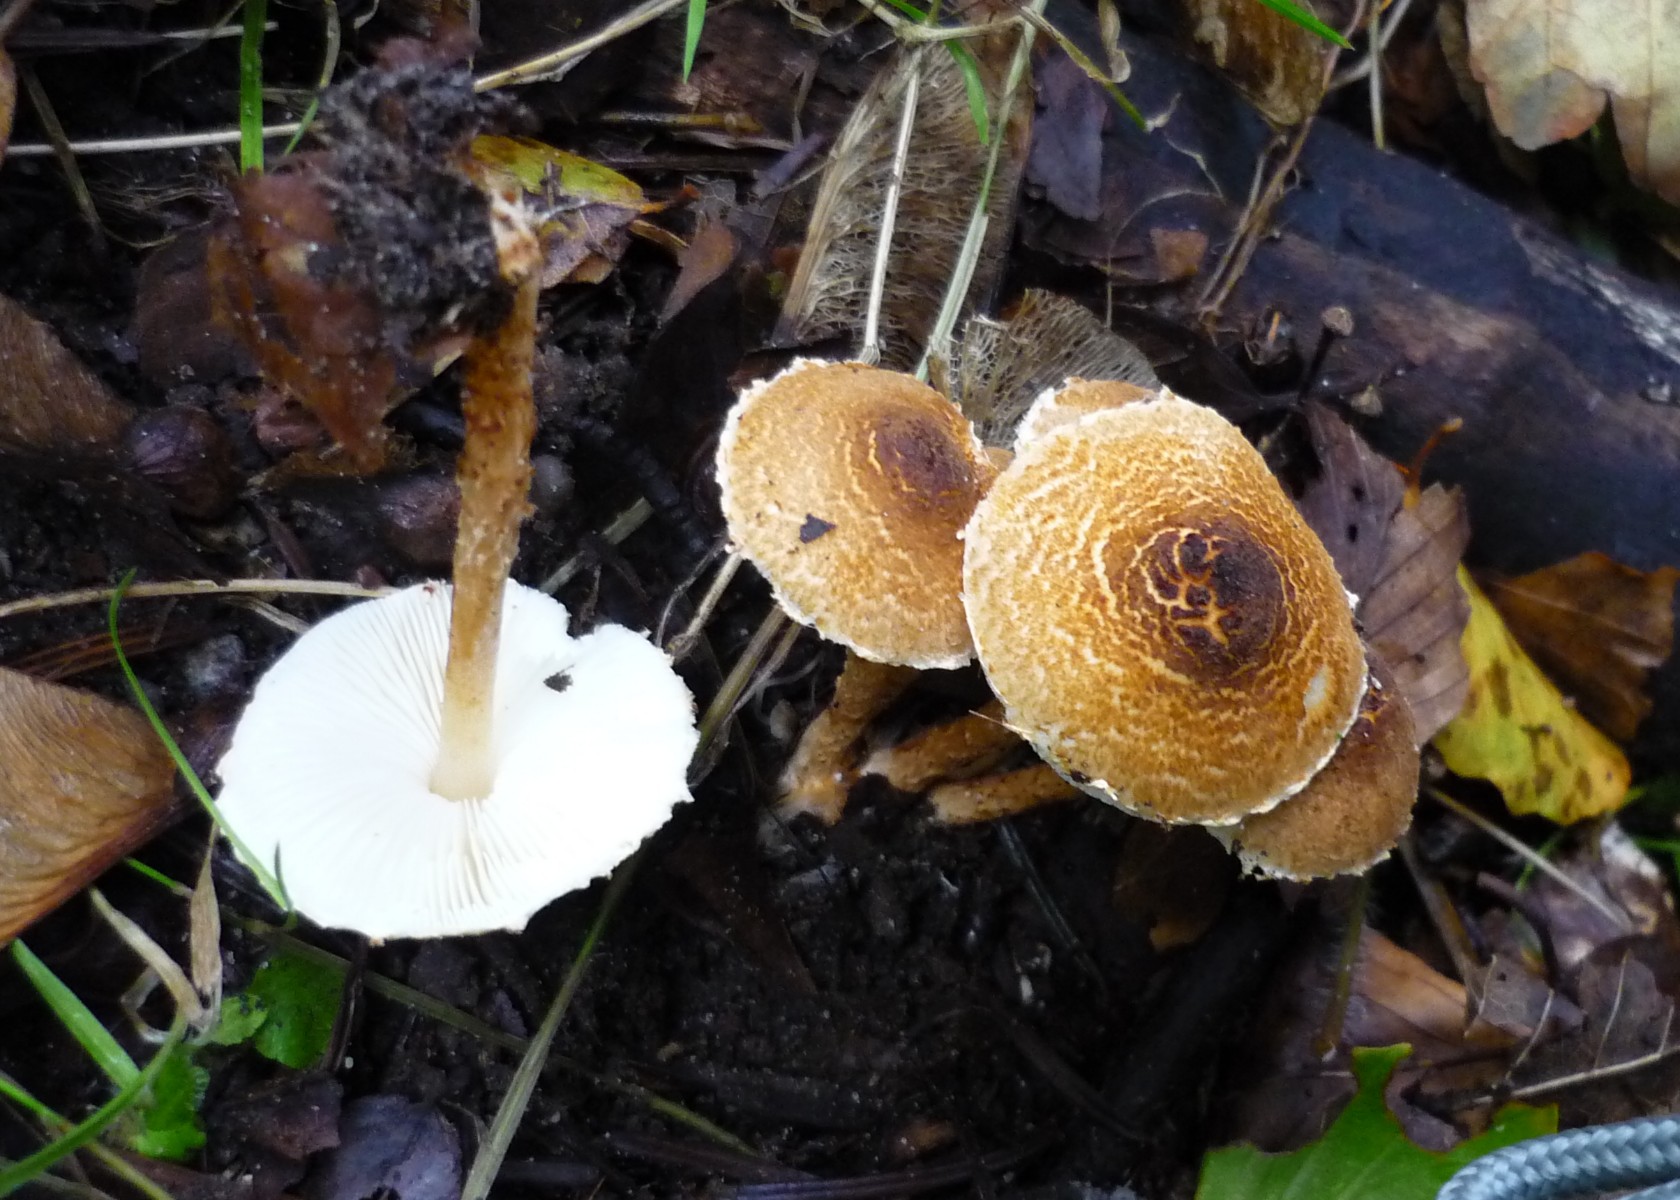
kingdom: Fungi
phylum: Basidiomycota
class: Agaricomycetes
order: Agaricales
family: Agaricaceae
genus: Lepiota
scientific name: Lepiota castanea
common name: kastaniebrun parasolhat
